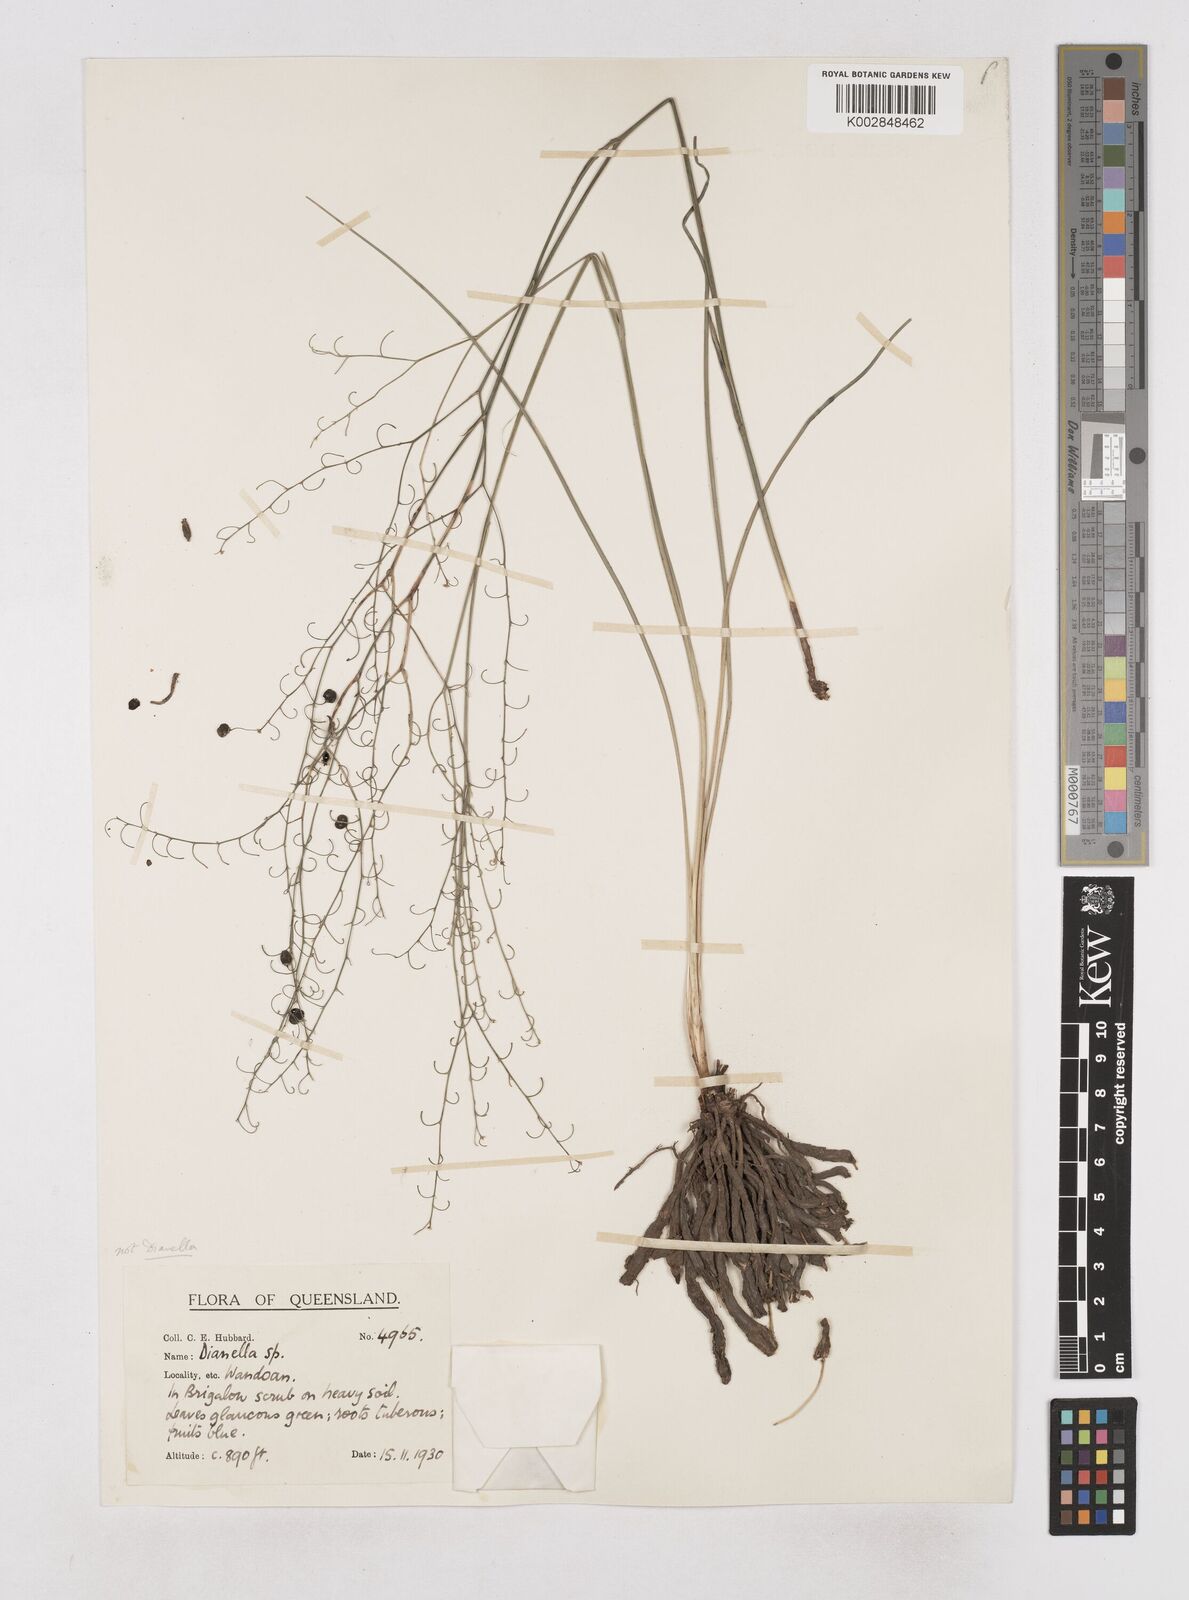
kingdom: Plantae
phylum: Tracheophyta
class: Liliopsida
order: Asparagales
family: Asphodelaceae
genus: Dianella
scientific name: Dianella longifolia
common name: Blue flax-lily
